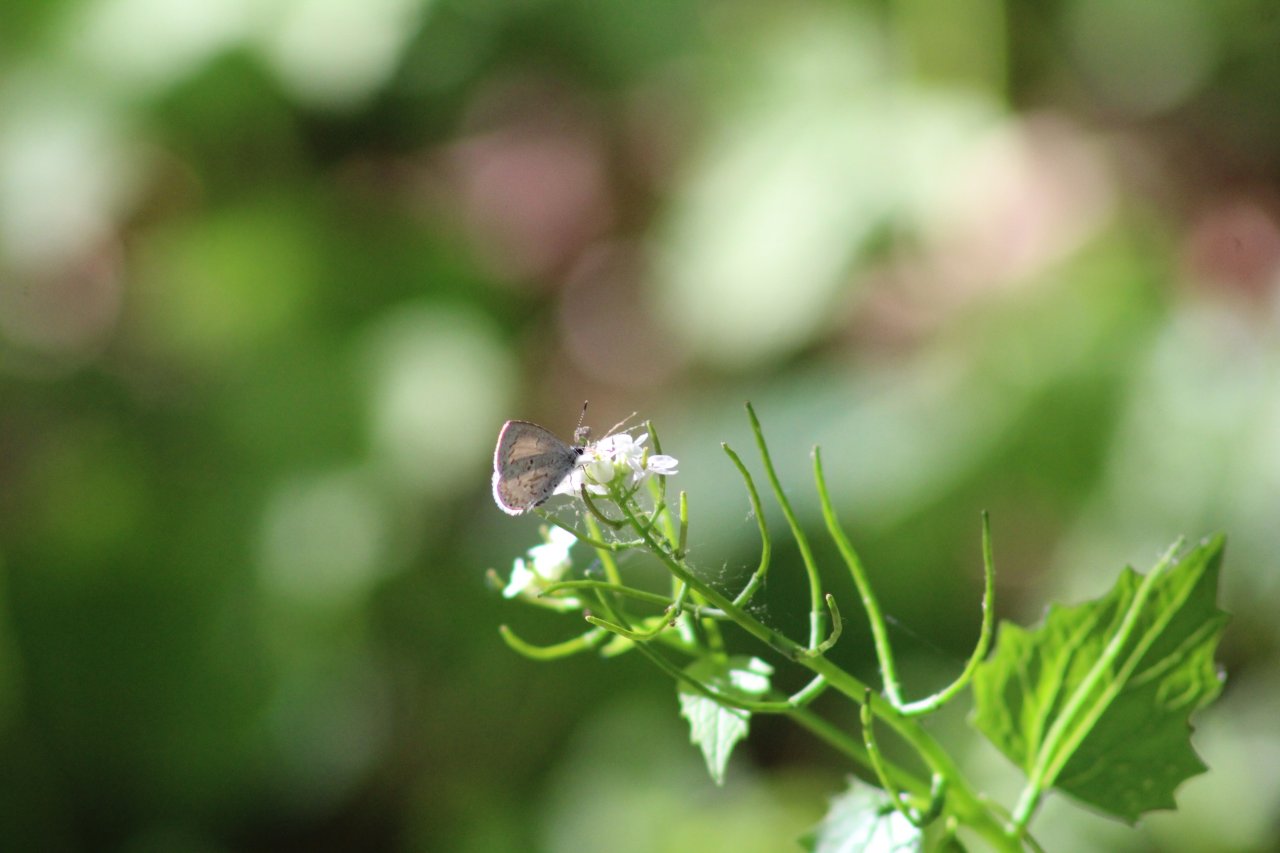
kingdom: Animalia
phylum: Arthropoda
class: Insecta
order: Lepidoptera
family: Lycaenidae
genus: Celastrina
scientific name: Celastrina ladon
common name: Spring Azure
